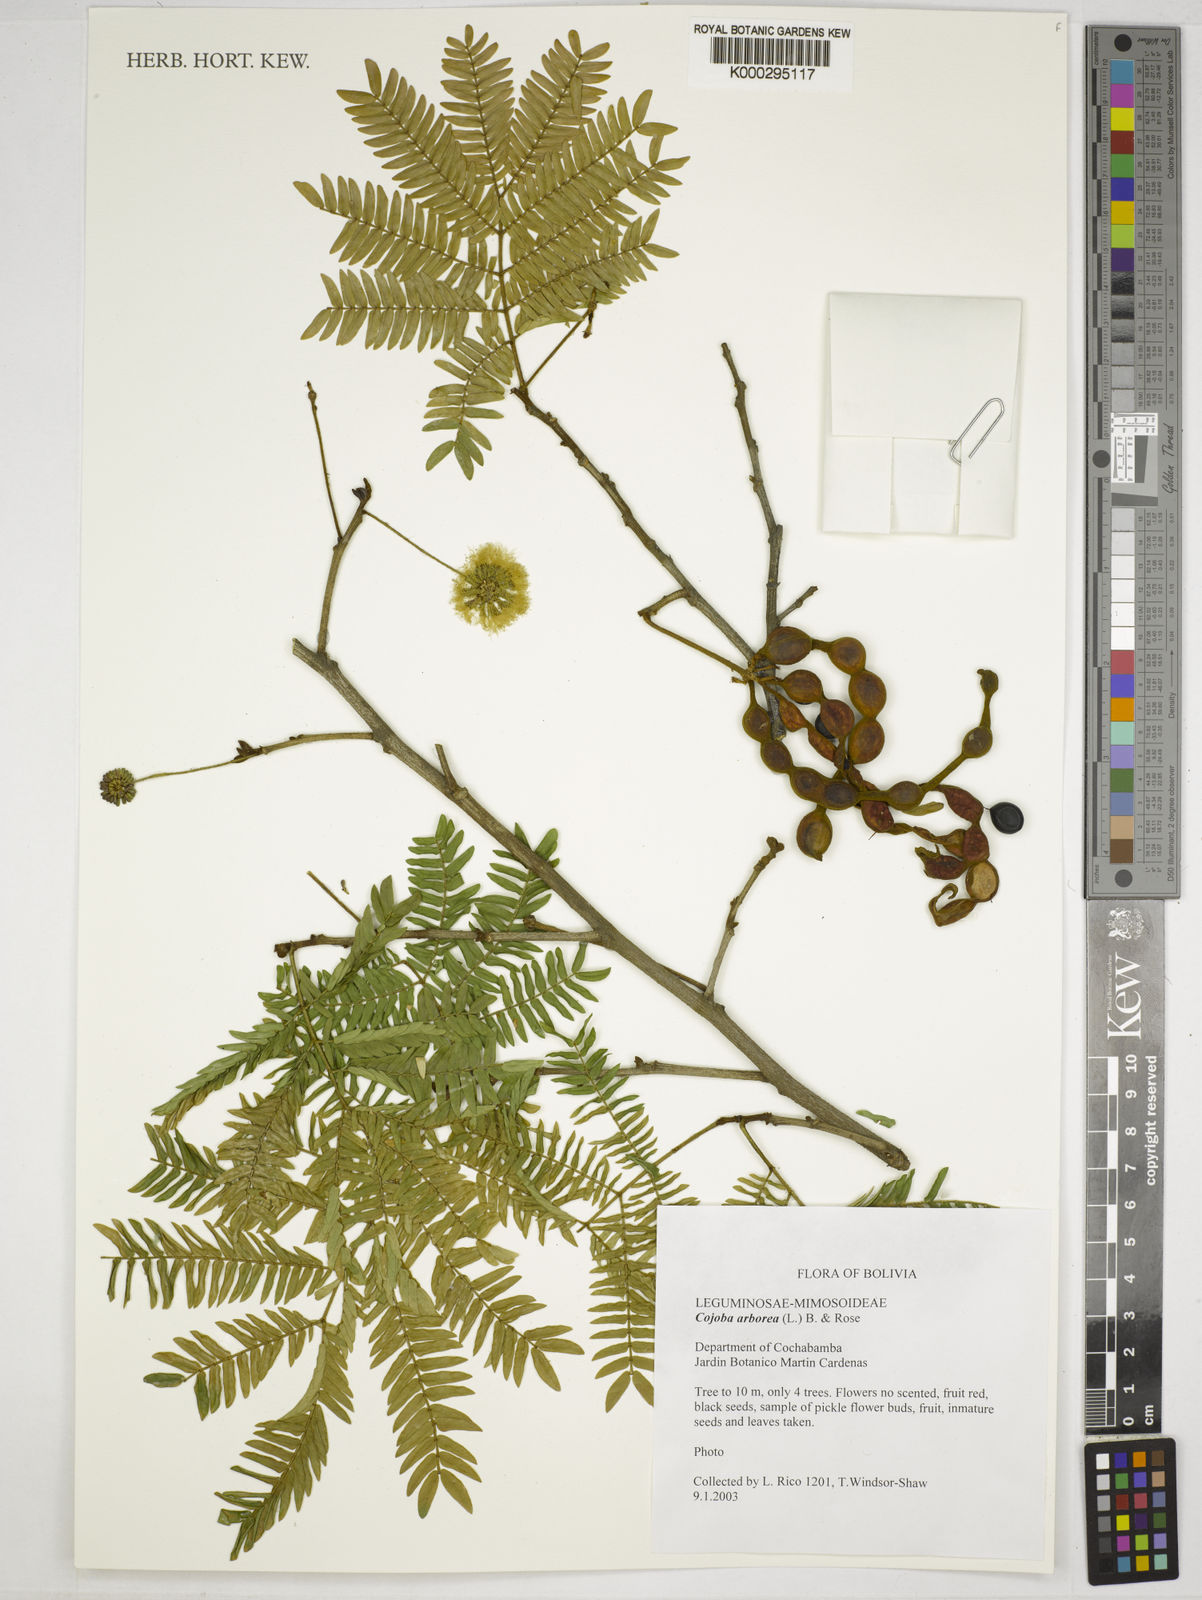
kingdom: Plantae
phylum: Tracheophyta
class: Magnoliopsida
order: Fabales
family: Fabaceae
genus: Cojoba
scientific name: Cojoba arborea
